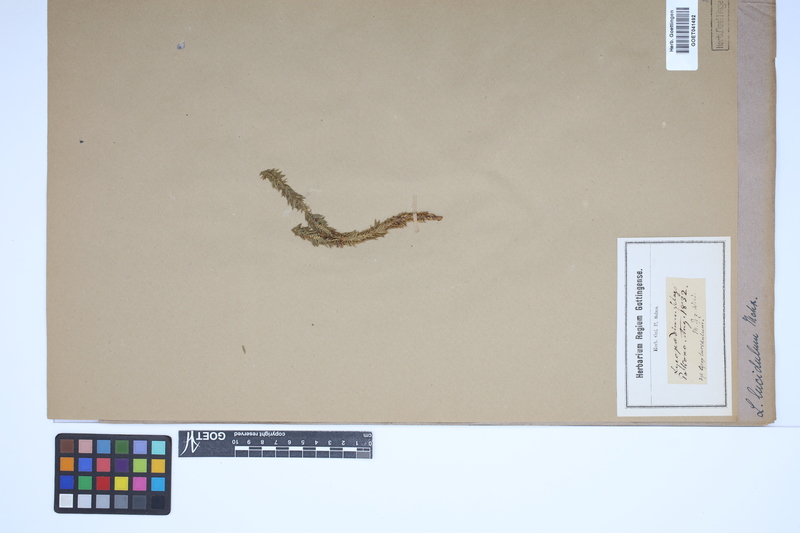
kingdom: Plantae
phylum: Tracheophyta
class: Lycopodiopsida
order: Lycopodiales
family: Lycopodiaceae
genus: Huperzia
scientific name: Huperzia lucidula
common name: Shining clubmoss
